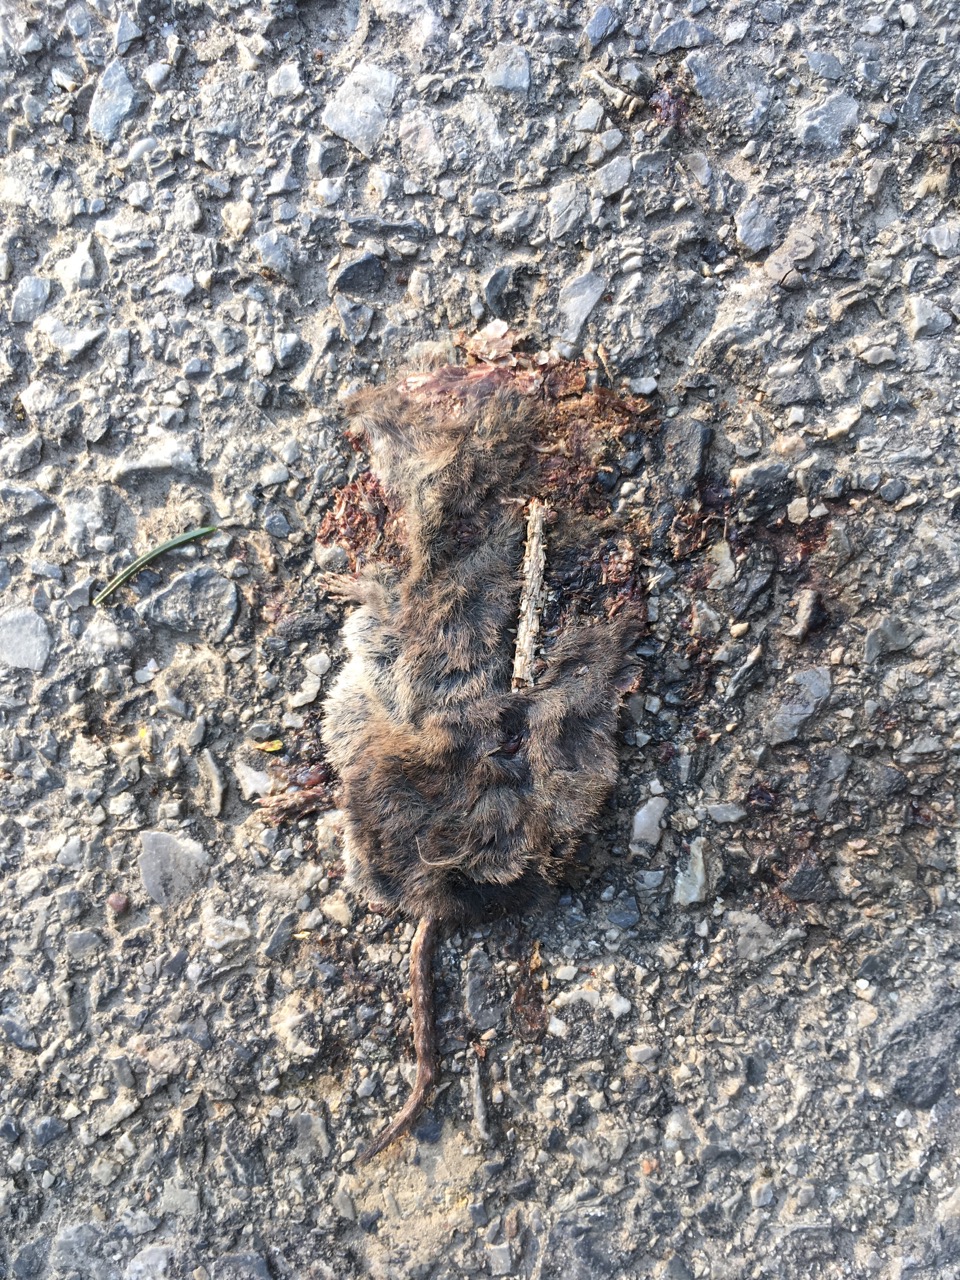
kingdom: Animalia
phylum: Chordata
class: Mammalia
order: Soricomorpha
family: Soricidae
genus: Sorex
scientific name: Sorex araneus
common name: Common shrew
